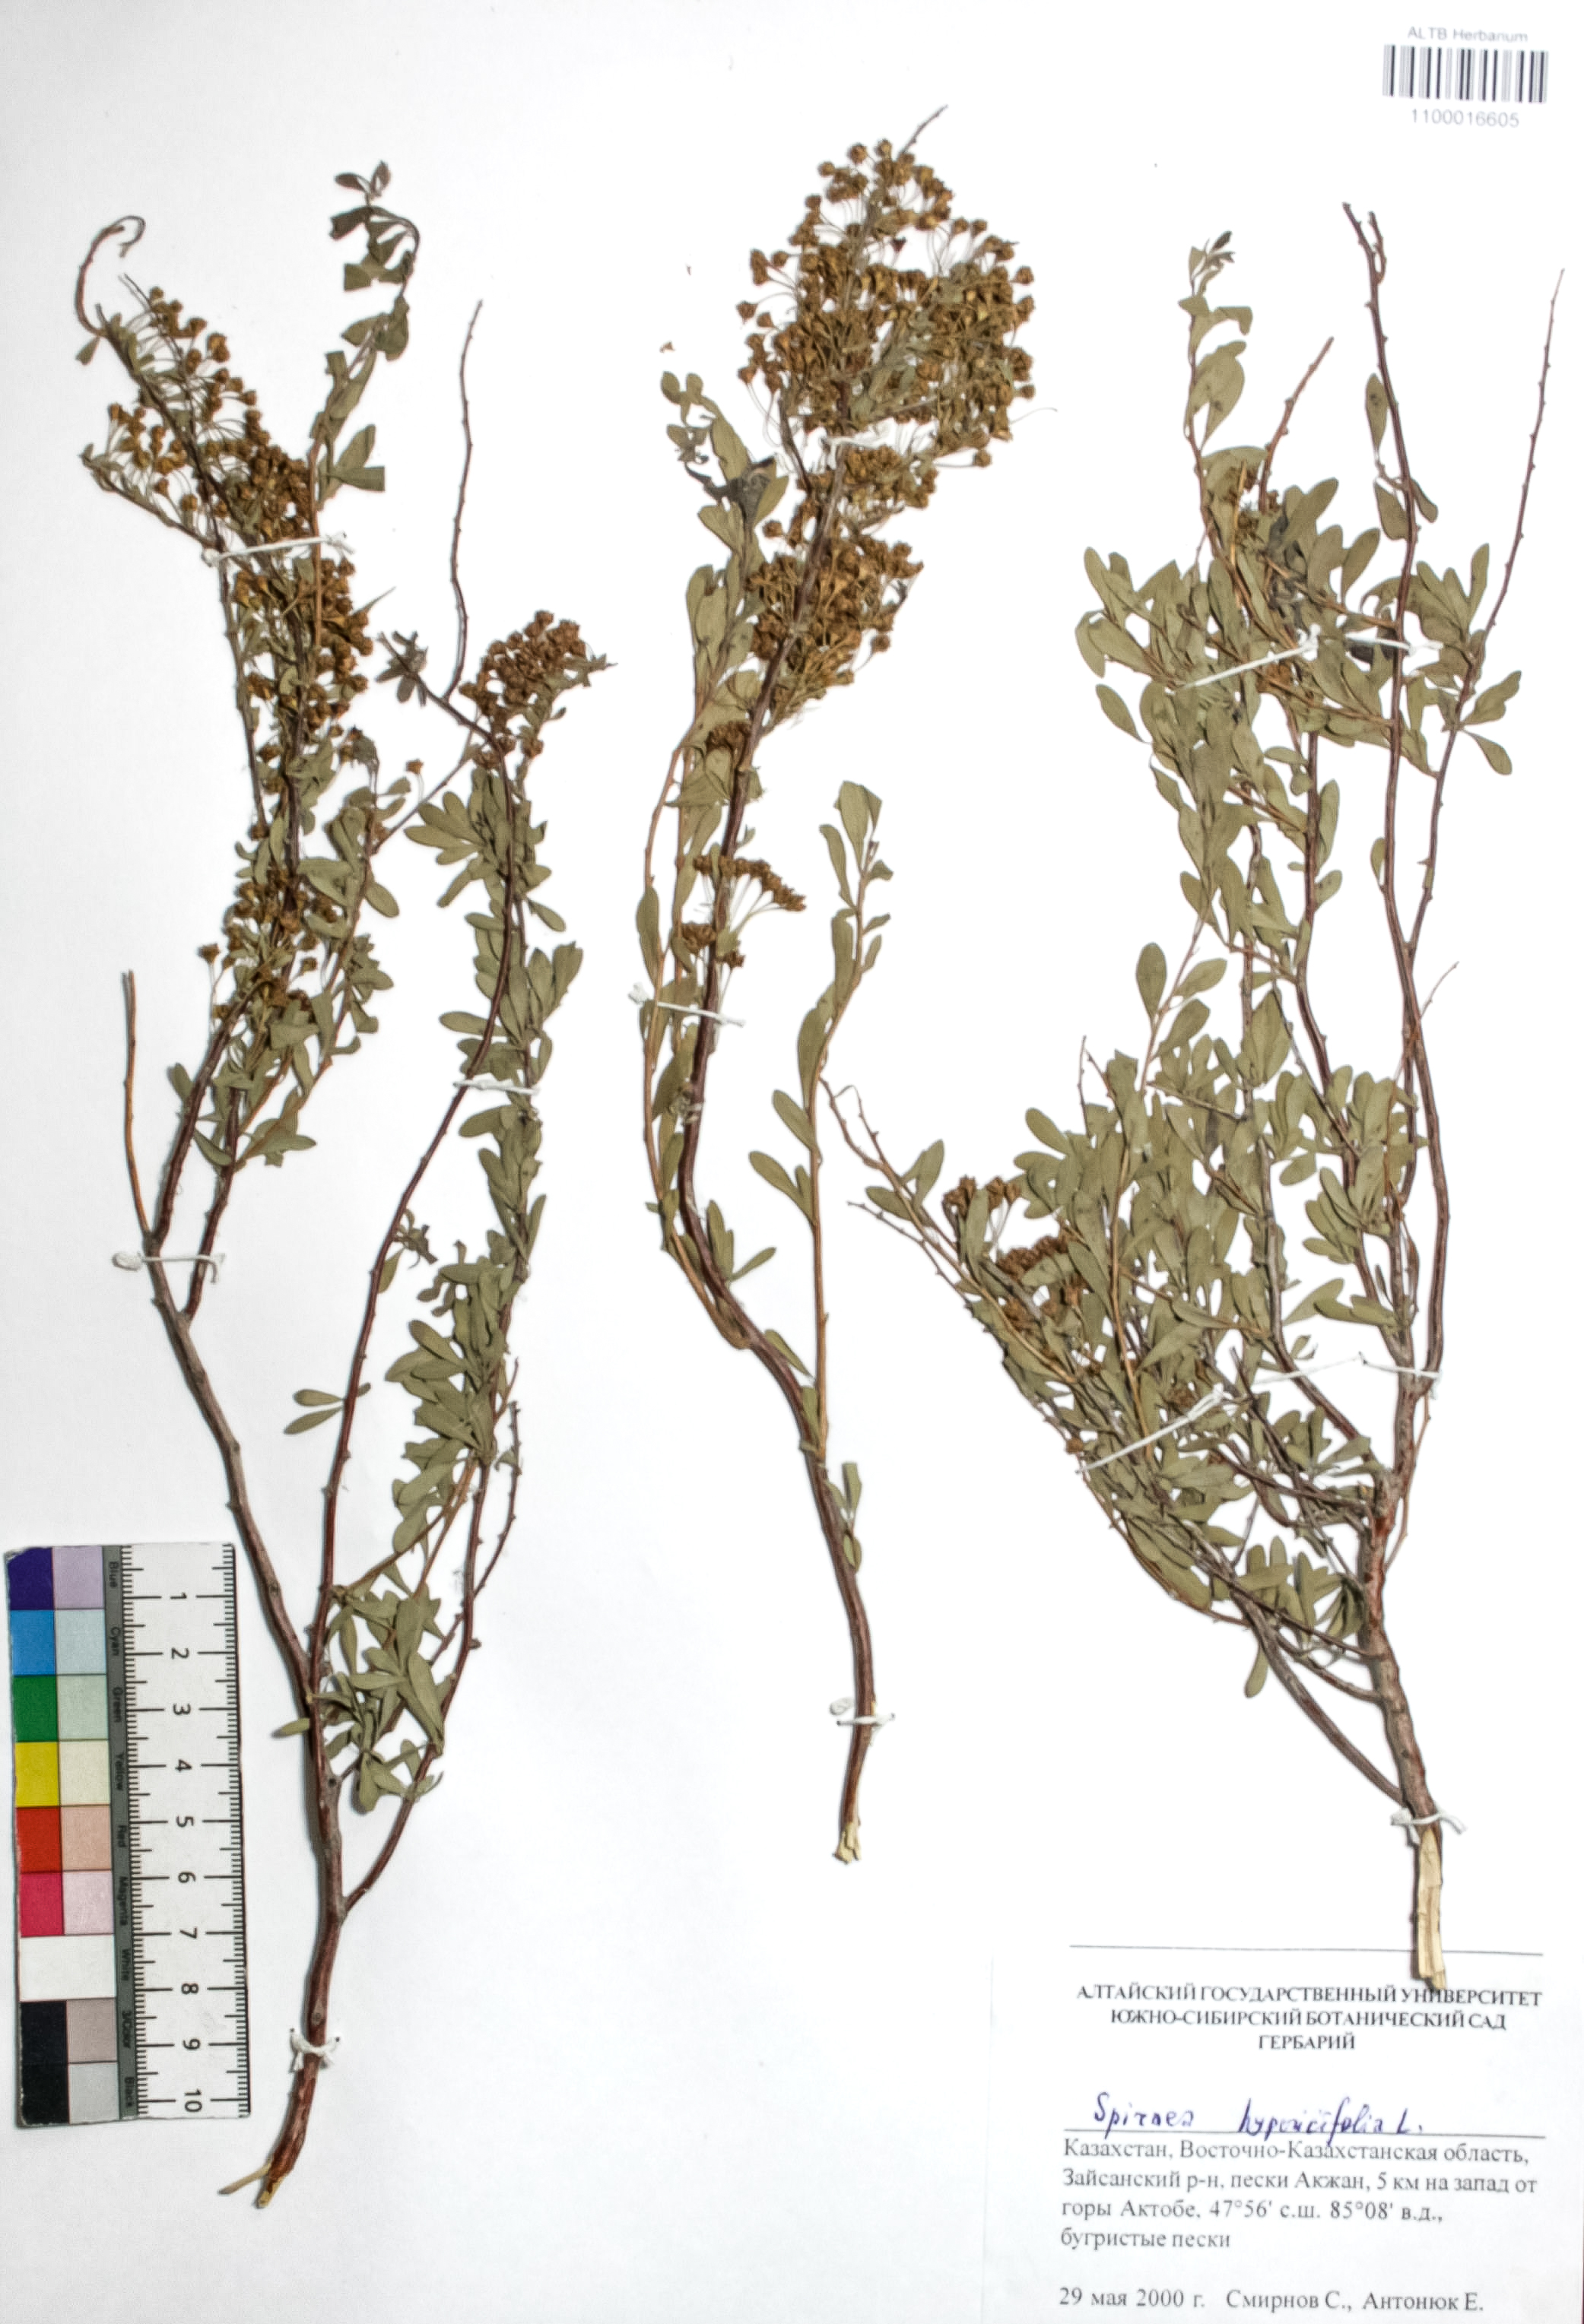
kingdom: Plantae
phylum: Tracheophyta
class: Magnoliopsida
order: Rosales
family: Rosaceae
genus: Spiraea
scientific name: Spiraea hypericifolia
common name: Iberian spirea
